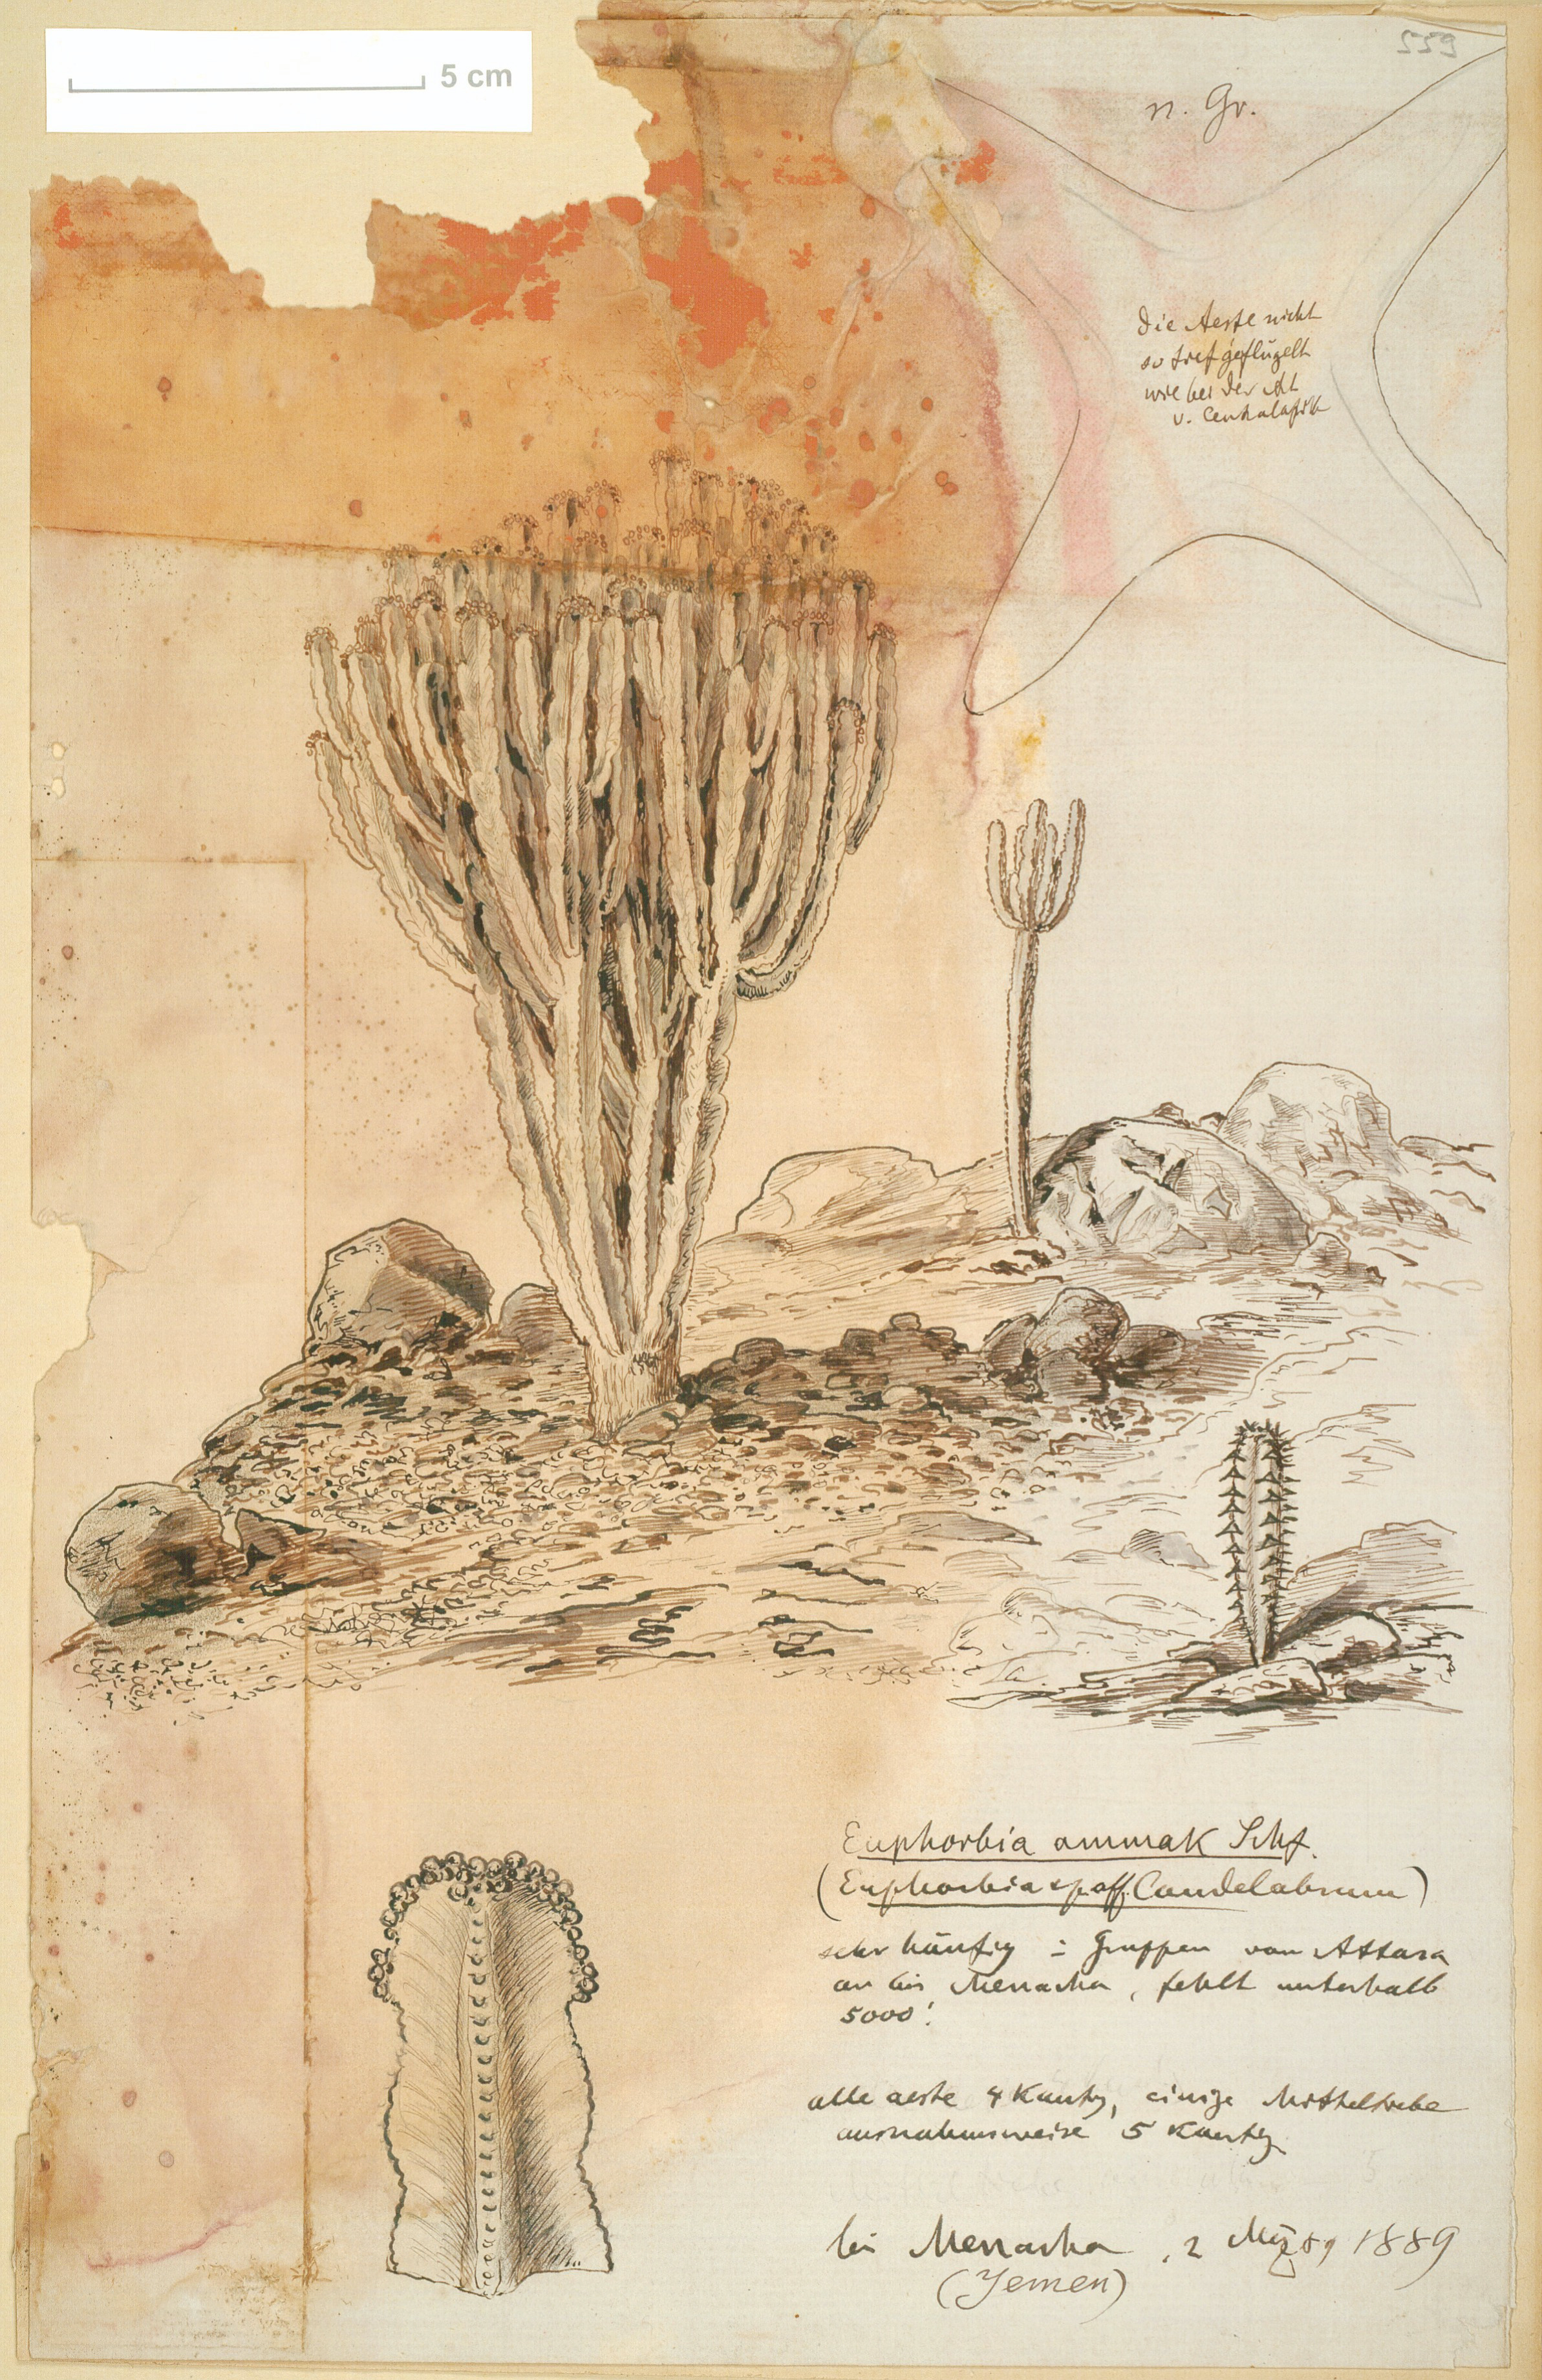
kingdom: Plantae
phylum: Tracheophyta
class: Magnoliopsida
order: Malpighiales
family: Euphorbiaceae
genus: Euphorbia
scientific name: Euphorbia ammak
